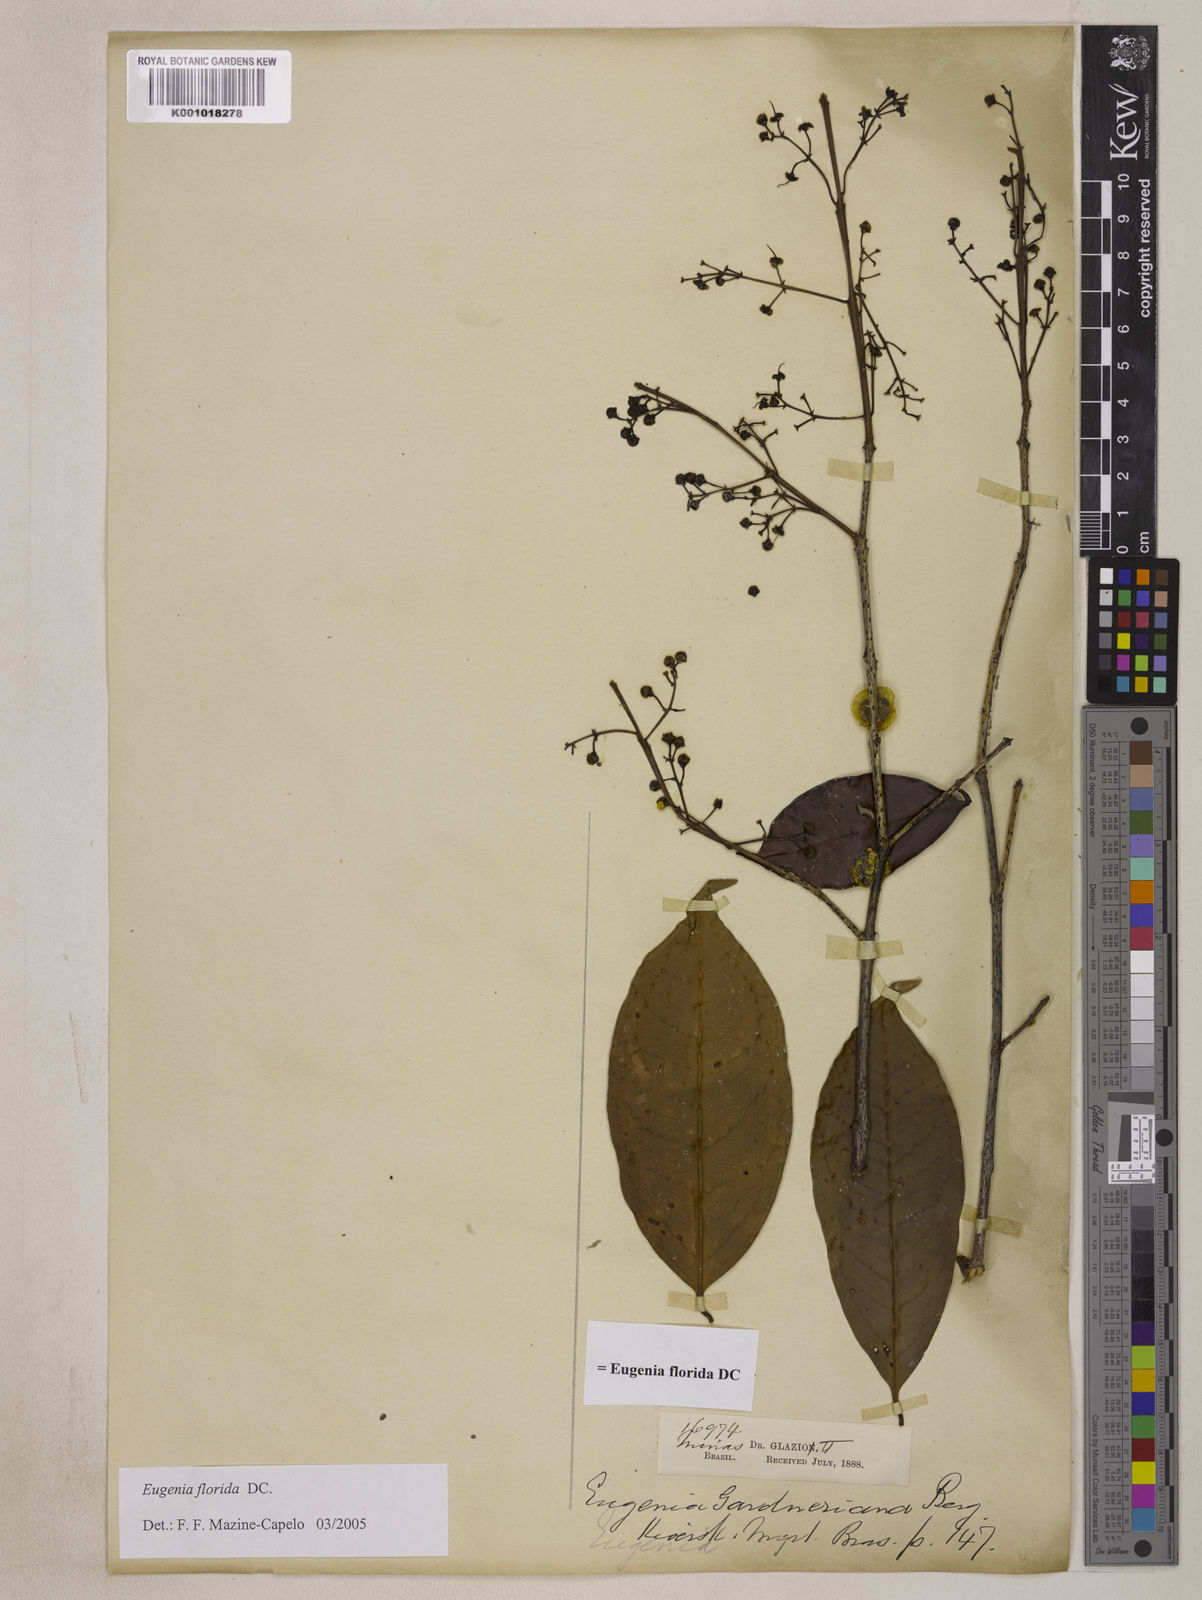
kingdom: Plantae
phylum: Tracheophyta
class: Magnoliopsida
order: Myrtales
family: Myrtaceae
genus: Eugenia
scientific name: Eugenia florida
